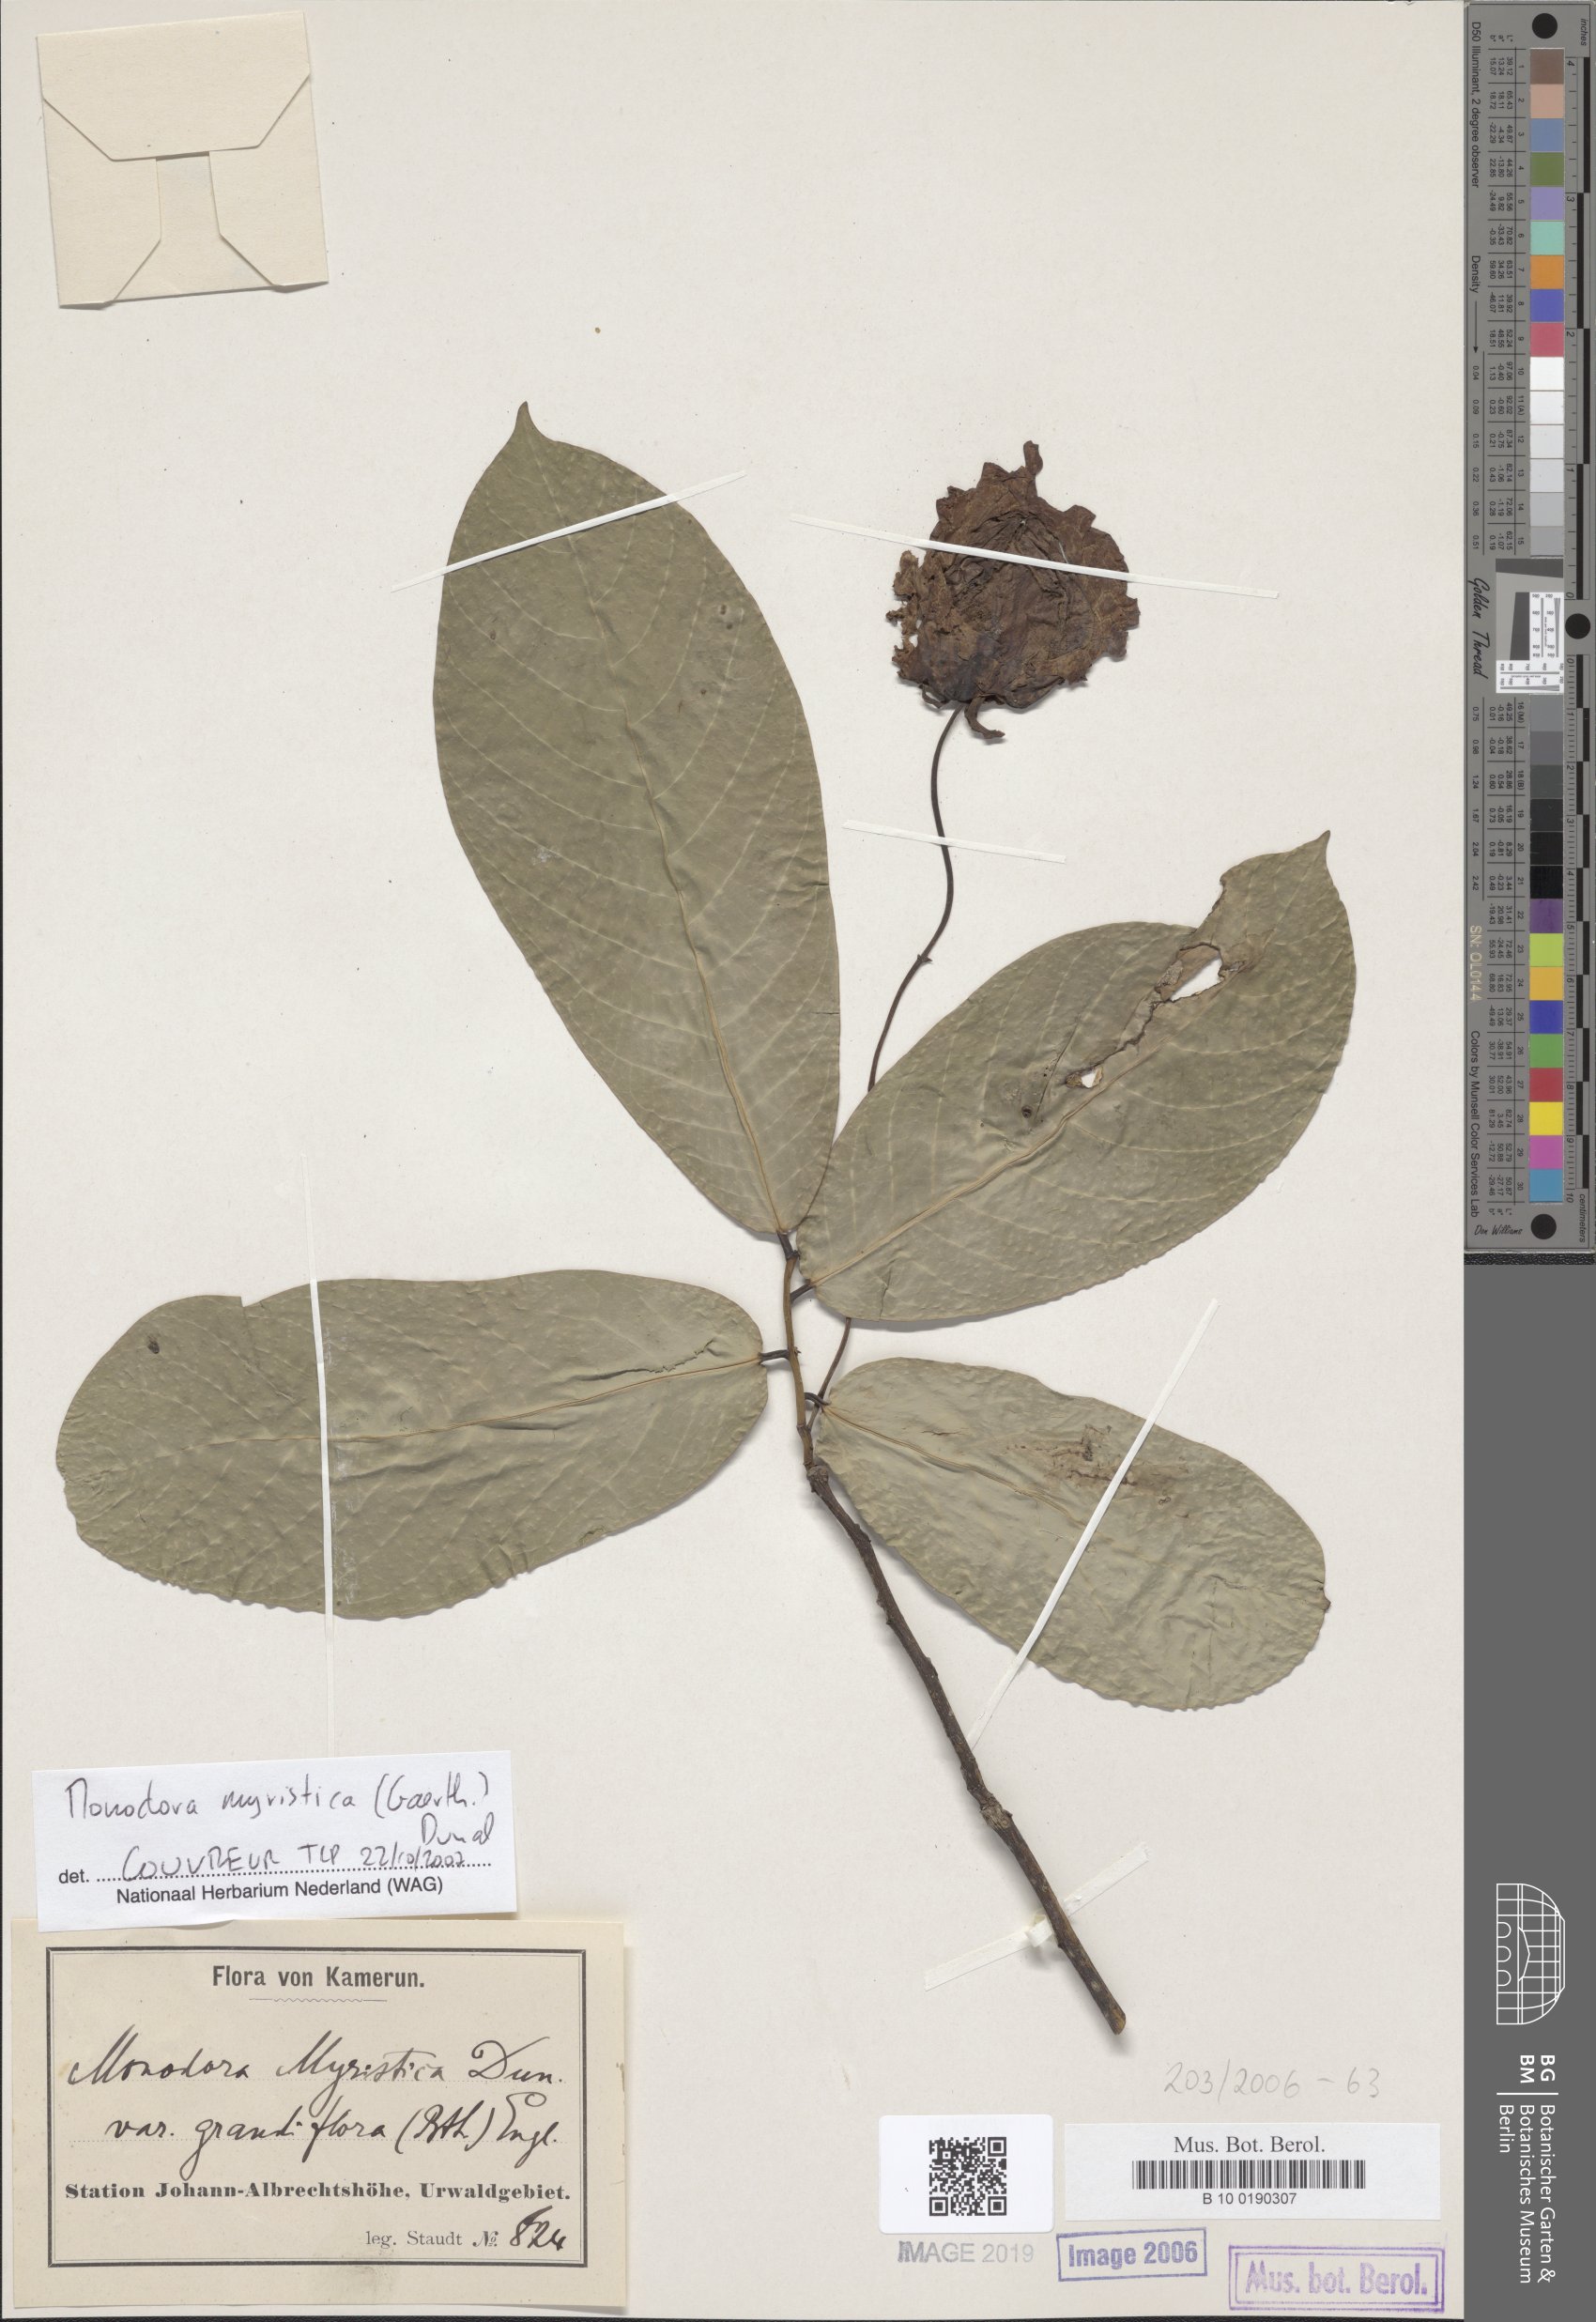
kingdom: Plantae
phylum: Tracheophyta
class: Magnoliopsida
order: Magnoliales
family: Annonaceae
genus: Monodora
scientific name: Monodora myristica
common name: African nutmeg
